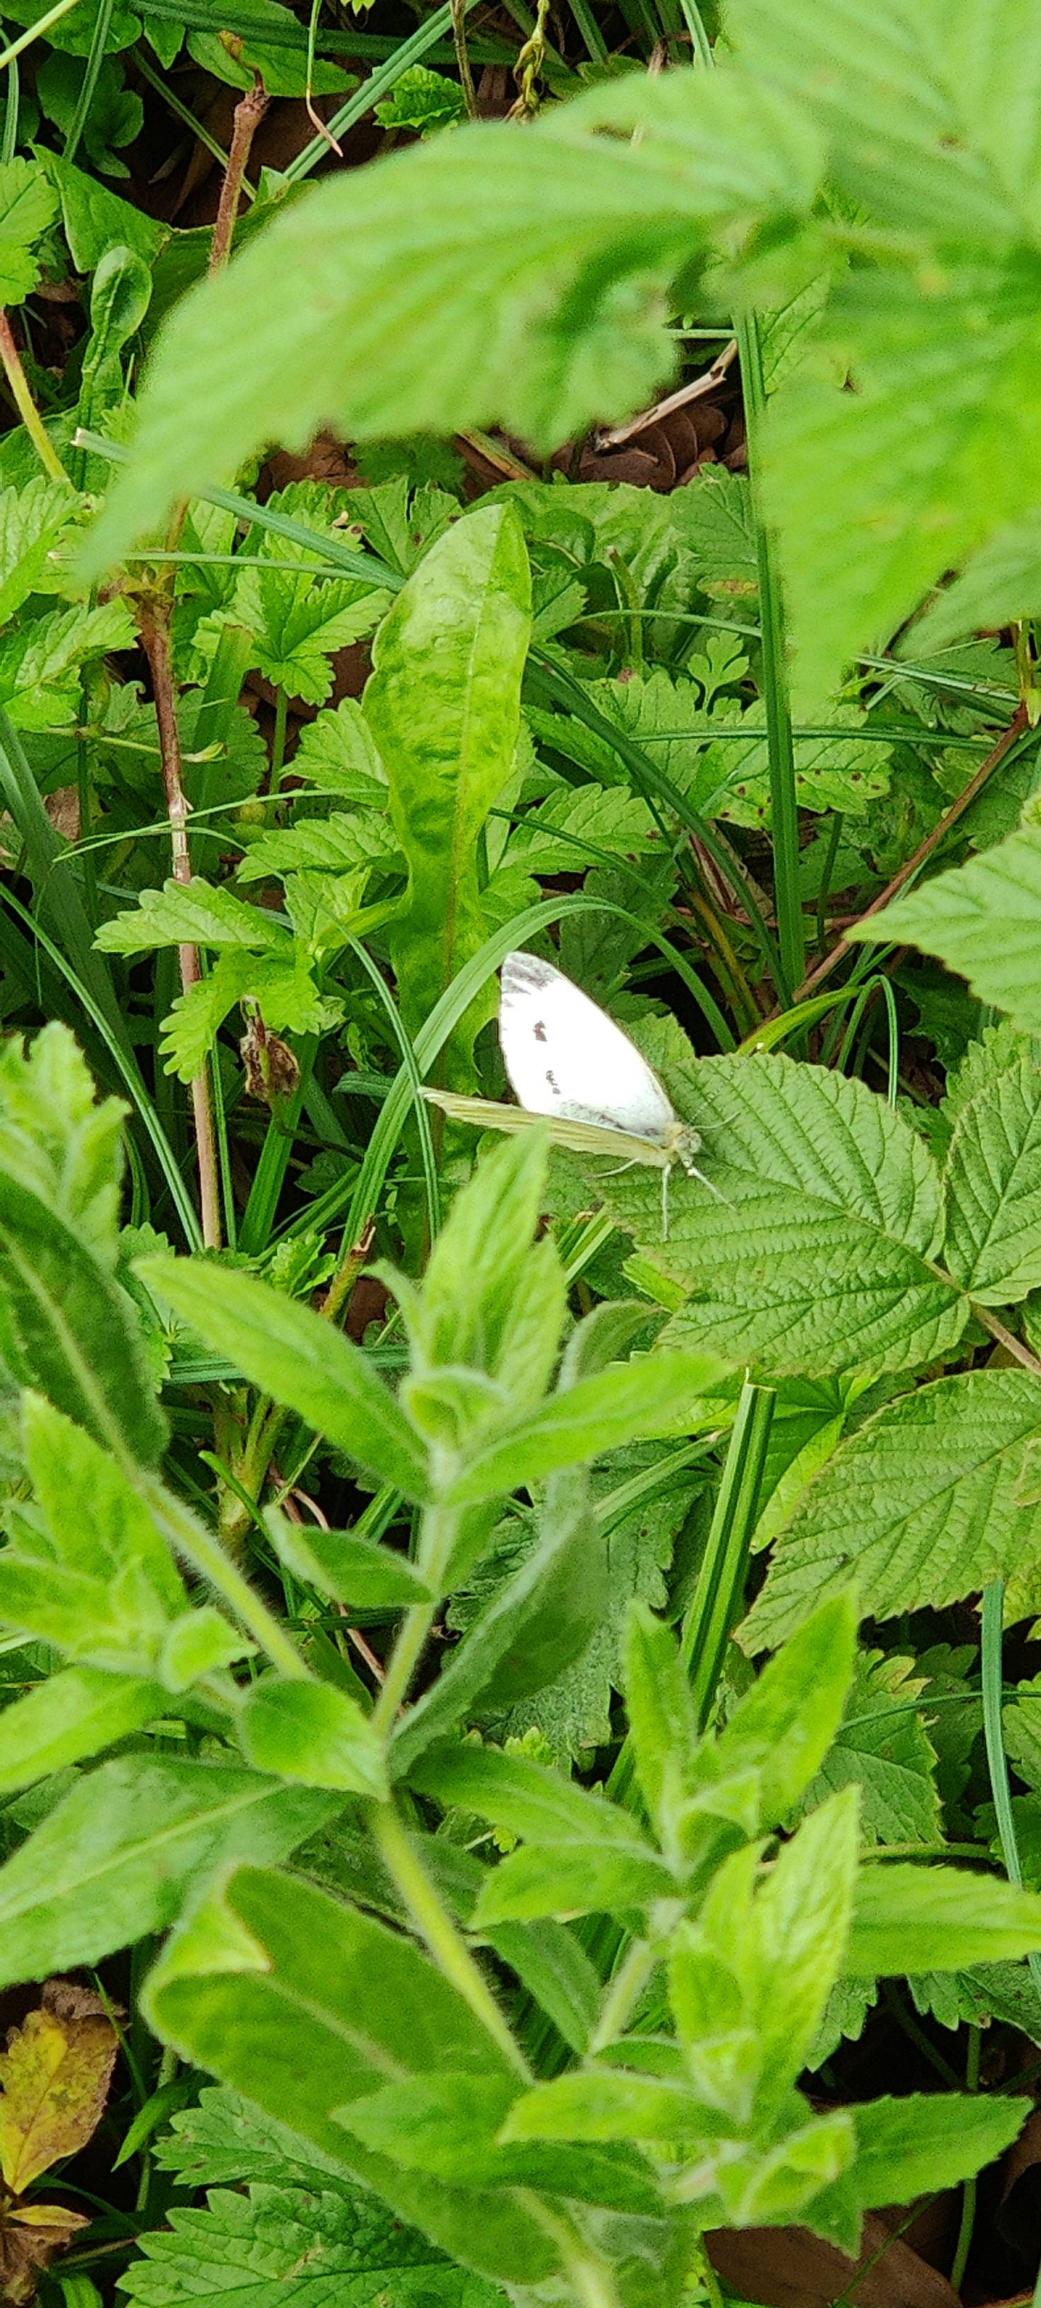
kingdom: Animalia
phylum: Arthropoda
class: Insecta
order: Lepidoptera
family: Pieridae
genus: Pieris
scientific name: Pieris napi
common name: Grønåret kålsommerfugl
